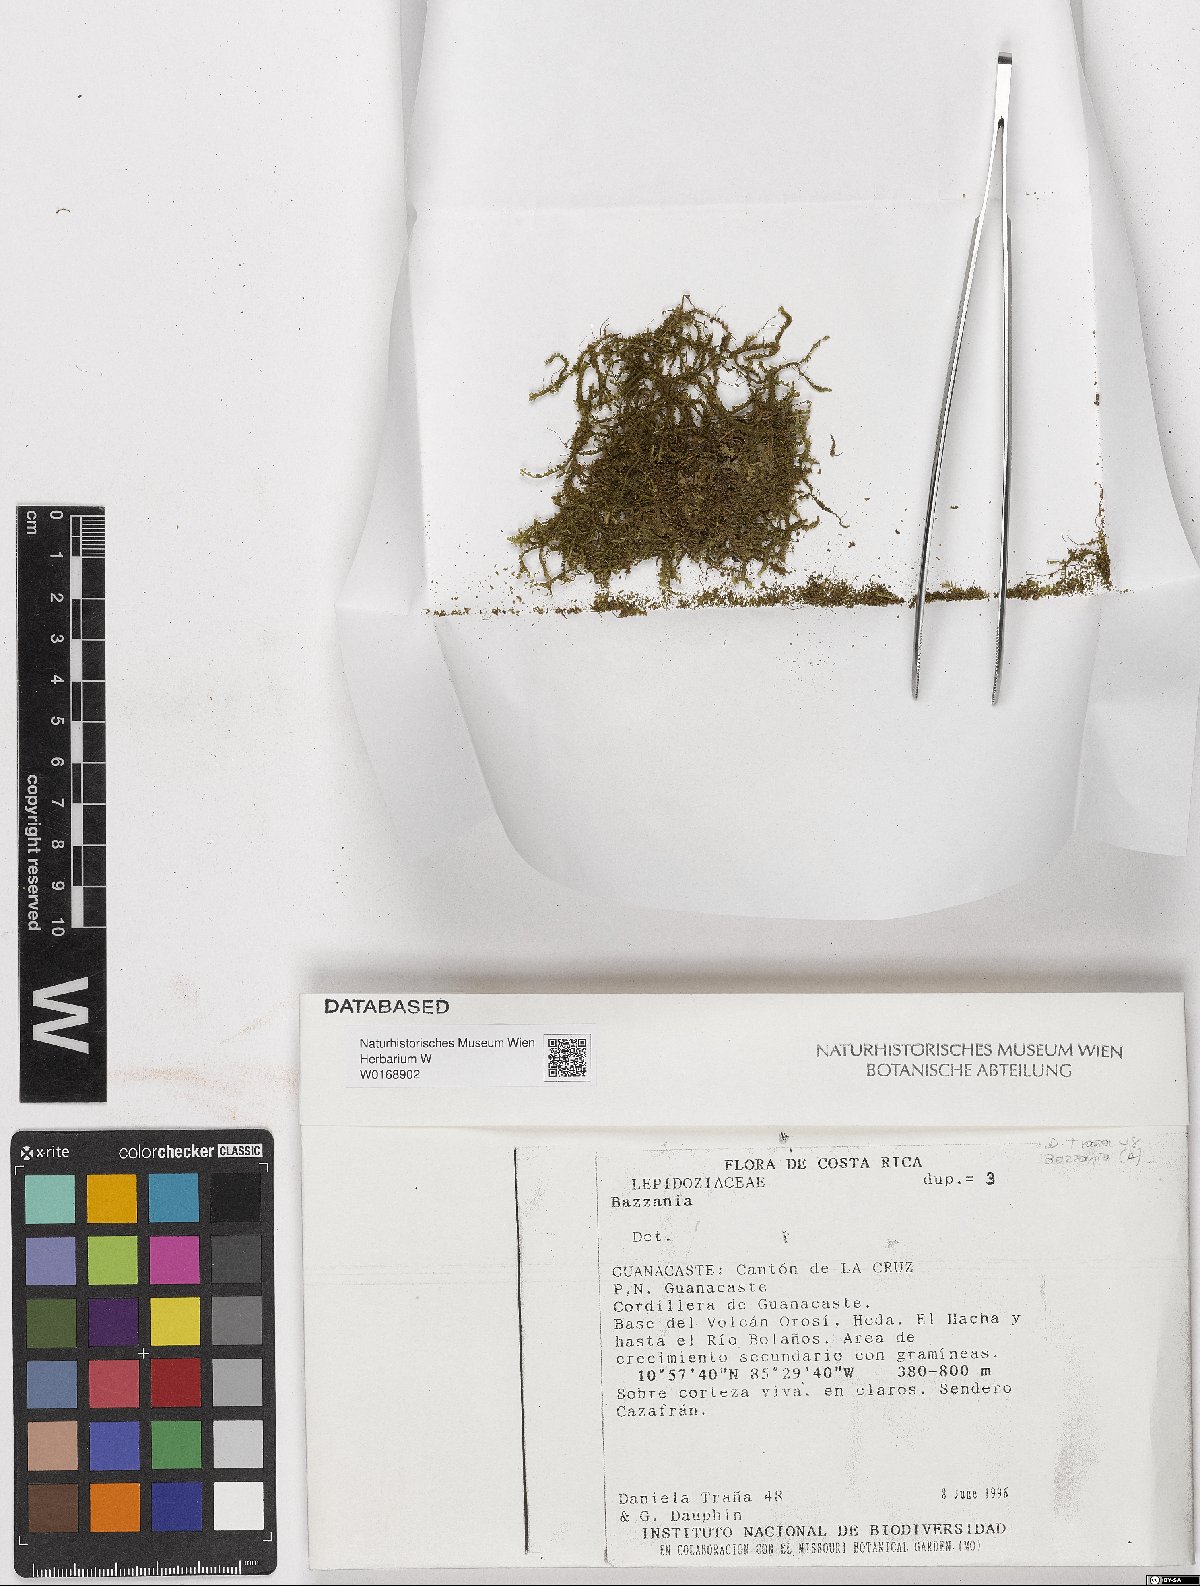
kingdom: Plantae
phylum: Marchantiophyta
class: Jungermanniopsida
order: Jungermanniales
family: Lepidoziaceae
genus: Bazzania
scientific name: Bazzania
